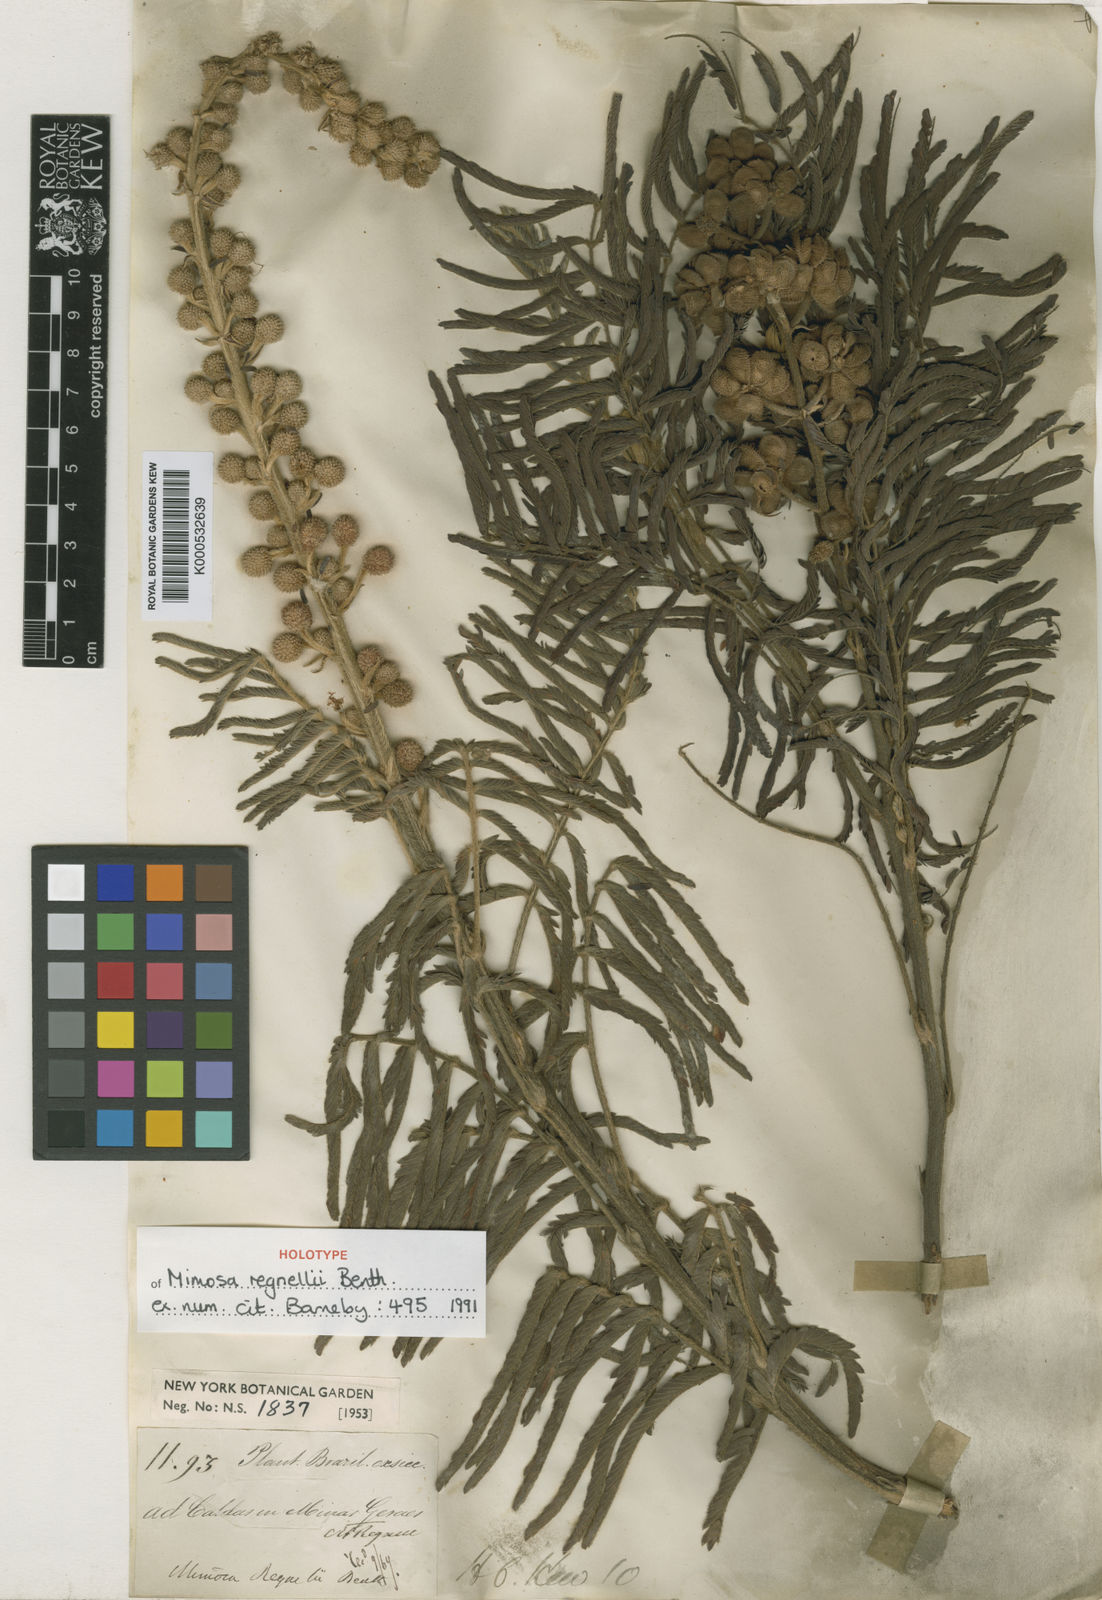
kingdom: Plantae
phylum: Tracheophyta
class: Magnoliopsida
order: Fabales
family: Fabaceae
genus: Mimosa
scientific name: Mimosa regnellii
